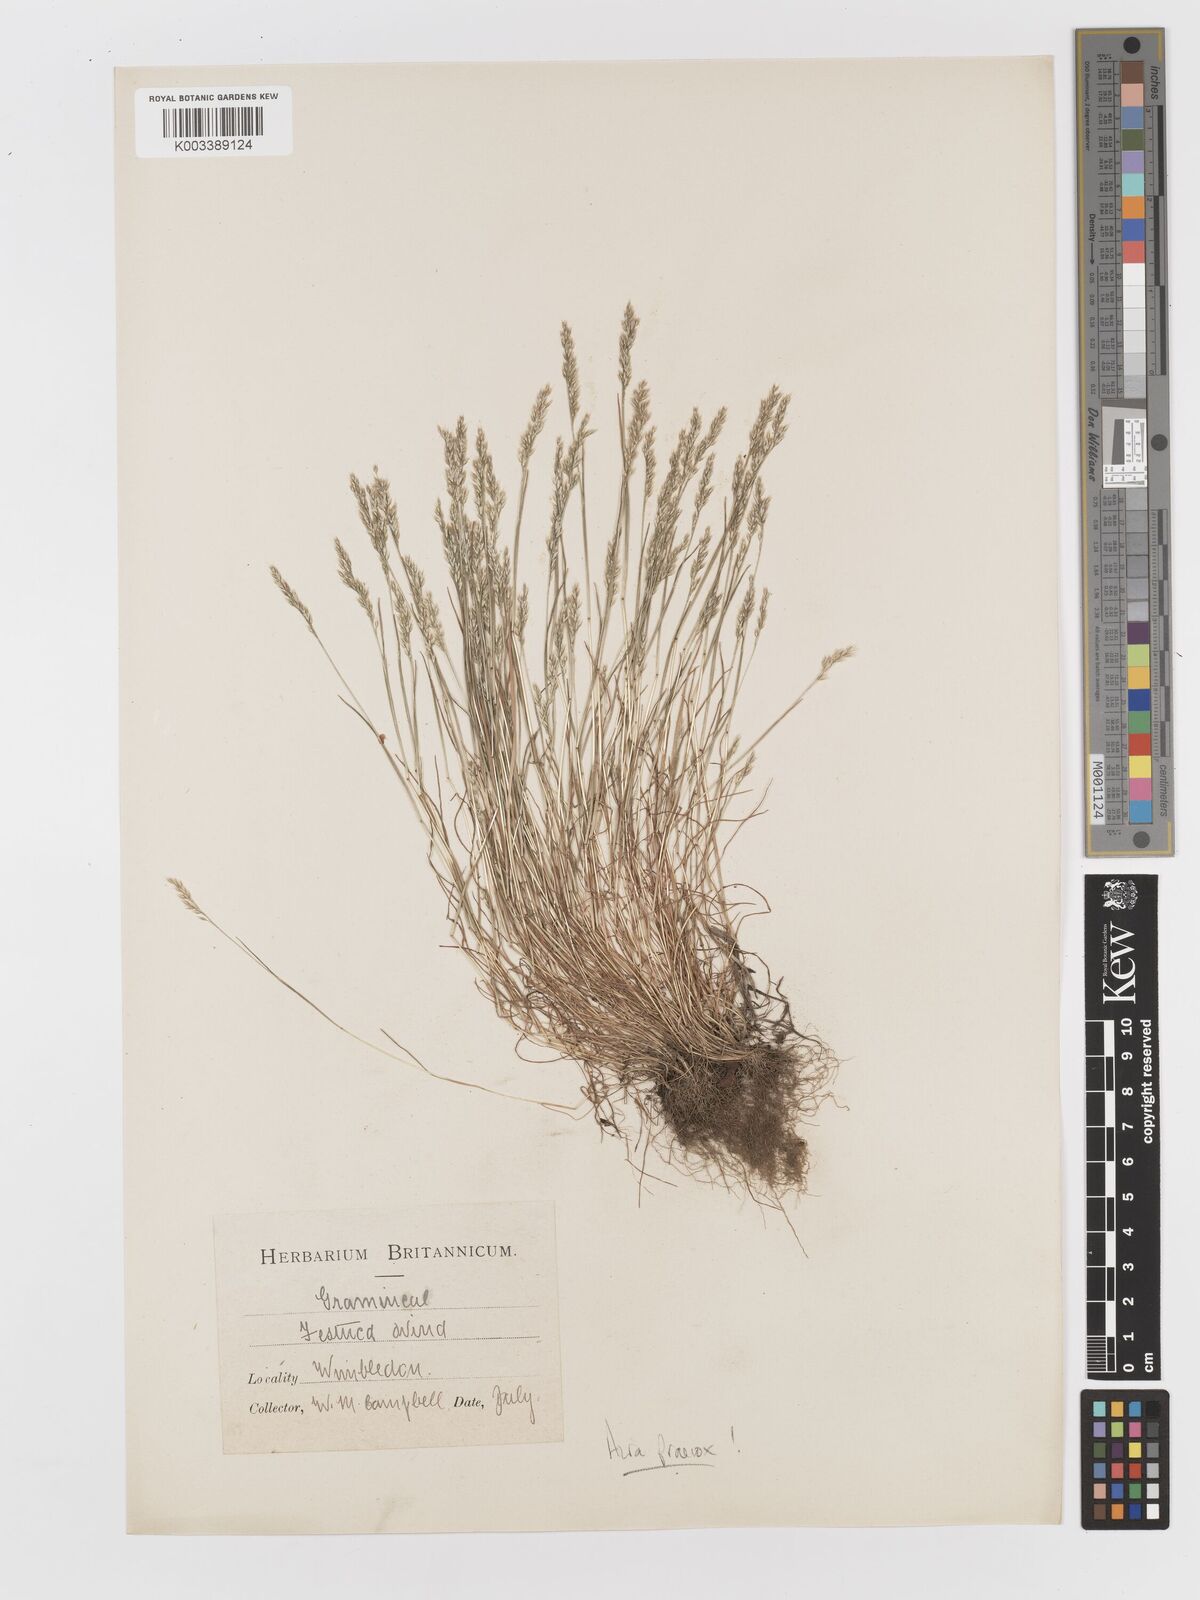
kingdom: Plantae
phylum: Tracheophyta
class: Liliopsida
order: Poales
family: Poaceae
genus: Aira
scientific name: Aira praecox
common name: Early hair-grass
